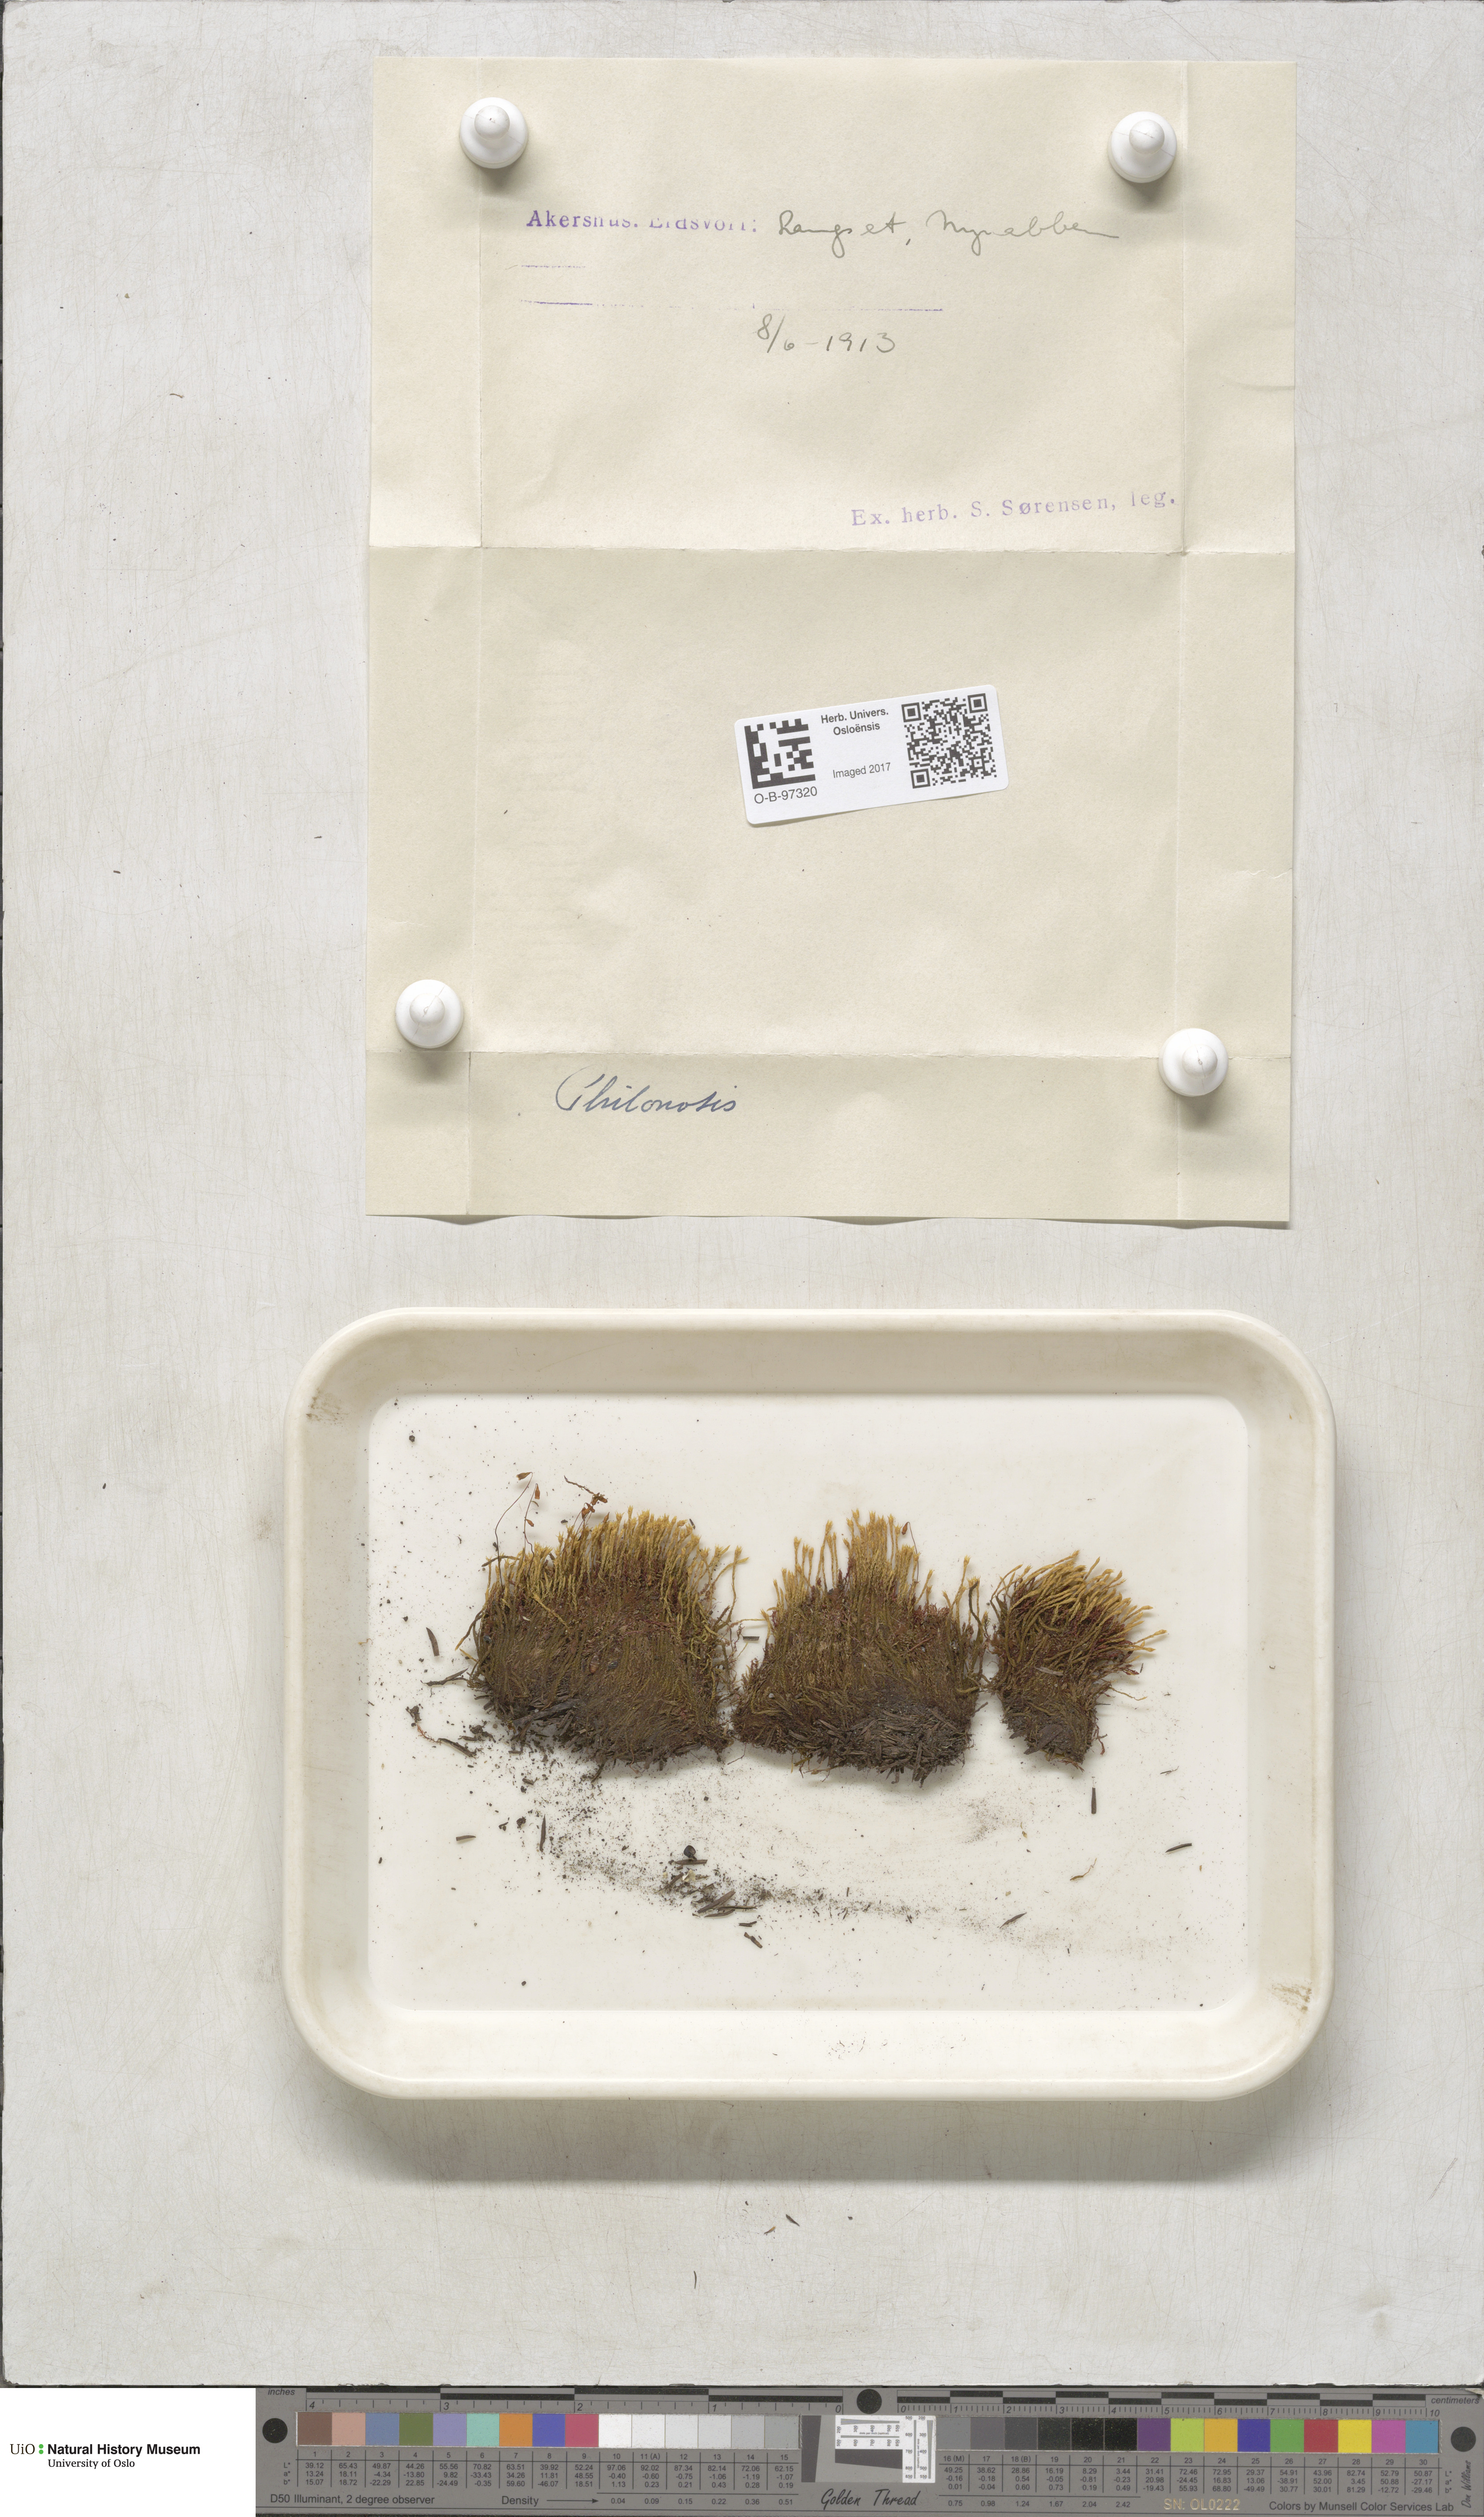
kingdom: Plantae
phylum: Bryophyta
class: Bryopsida
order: Bartramiales
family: Bartramiaceae
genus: Philonotis
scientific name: Philonotis
